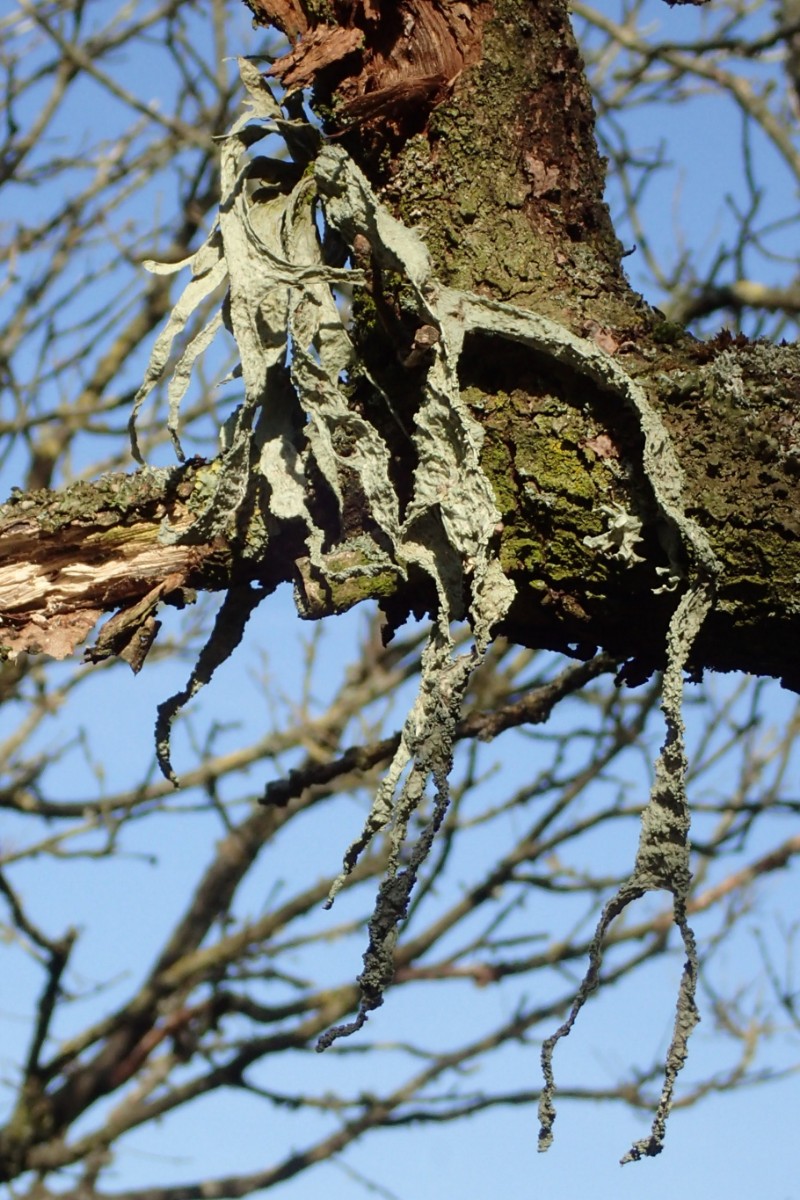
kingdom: Fungi
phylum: Ascomycota
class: Lecanoromycetes
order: Lecanorales
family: Ramalinaceae
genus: Ramalina
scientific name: Ramalina fraxinea
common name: stor grenlav
